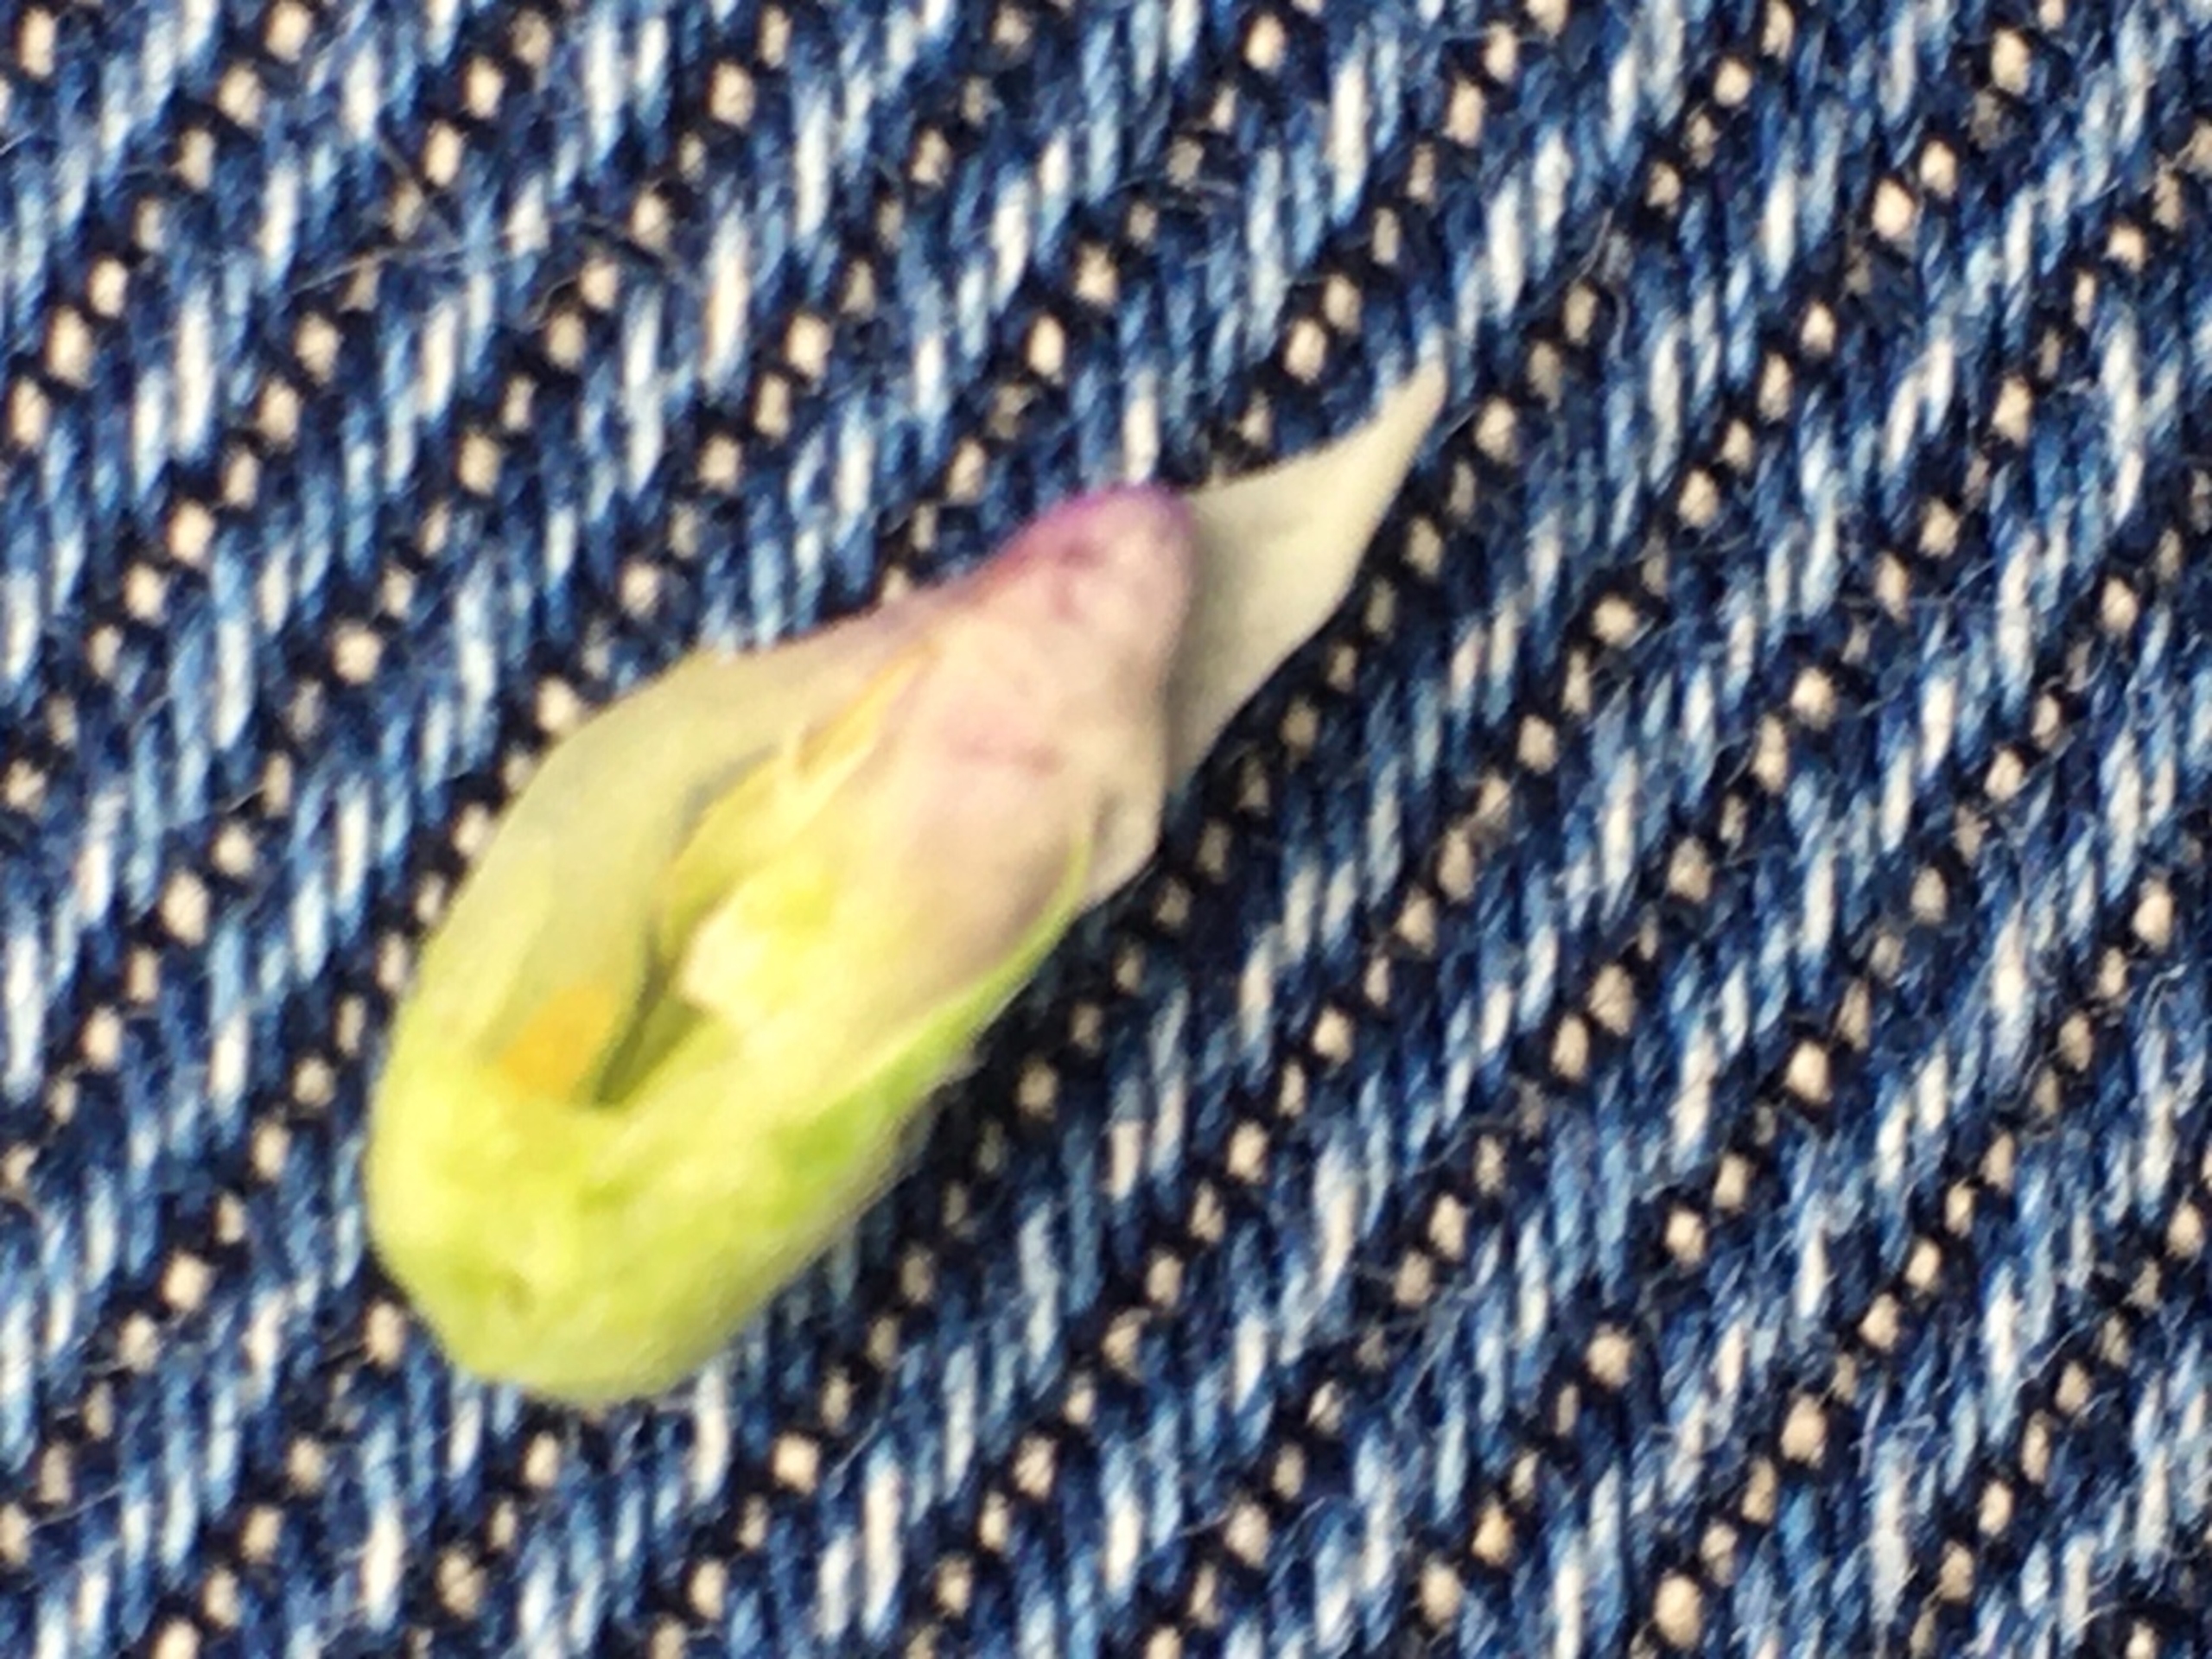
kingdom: Animalia
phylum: Arthropoda
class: Insecta
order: Diptera
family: Cecidomyiidae
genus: Contarinia
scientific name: Contarinia medicaginis
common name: Lucerneblomstgalmyg
